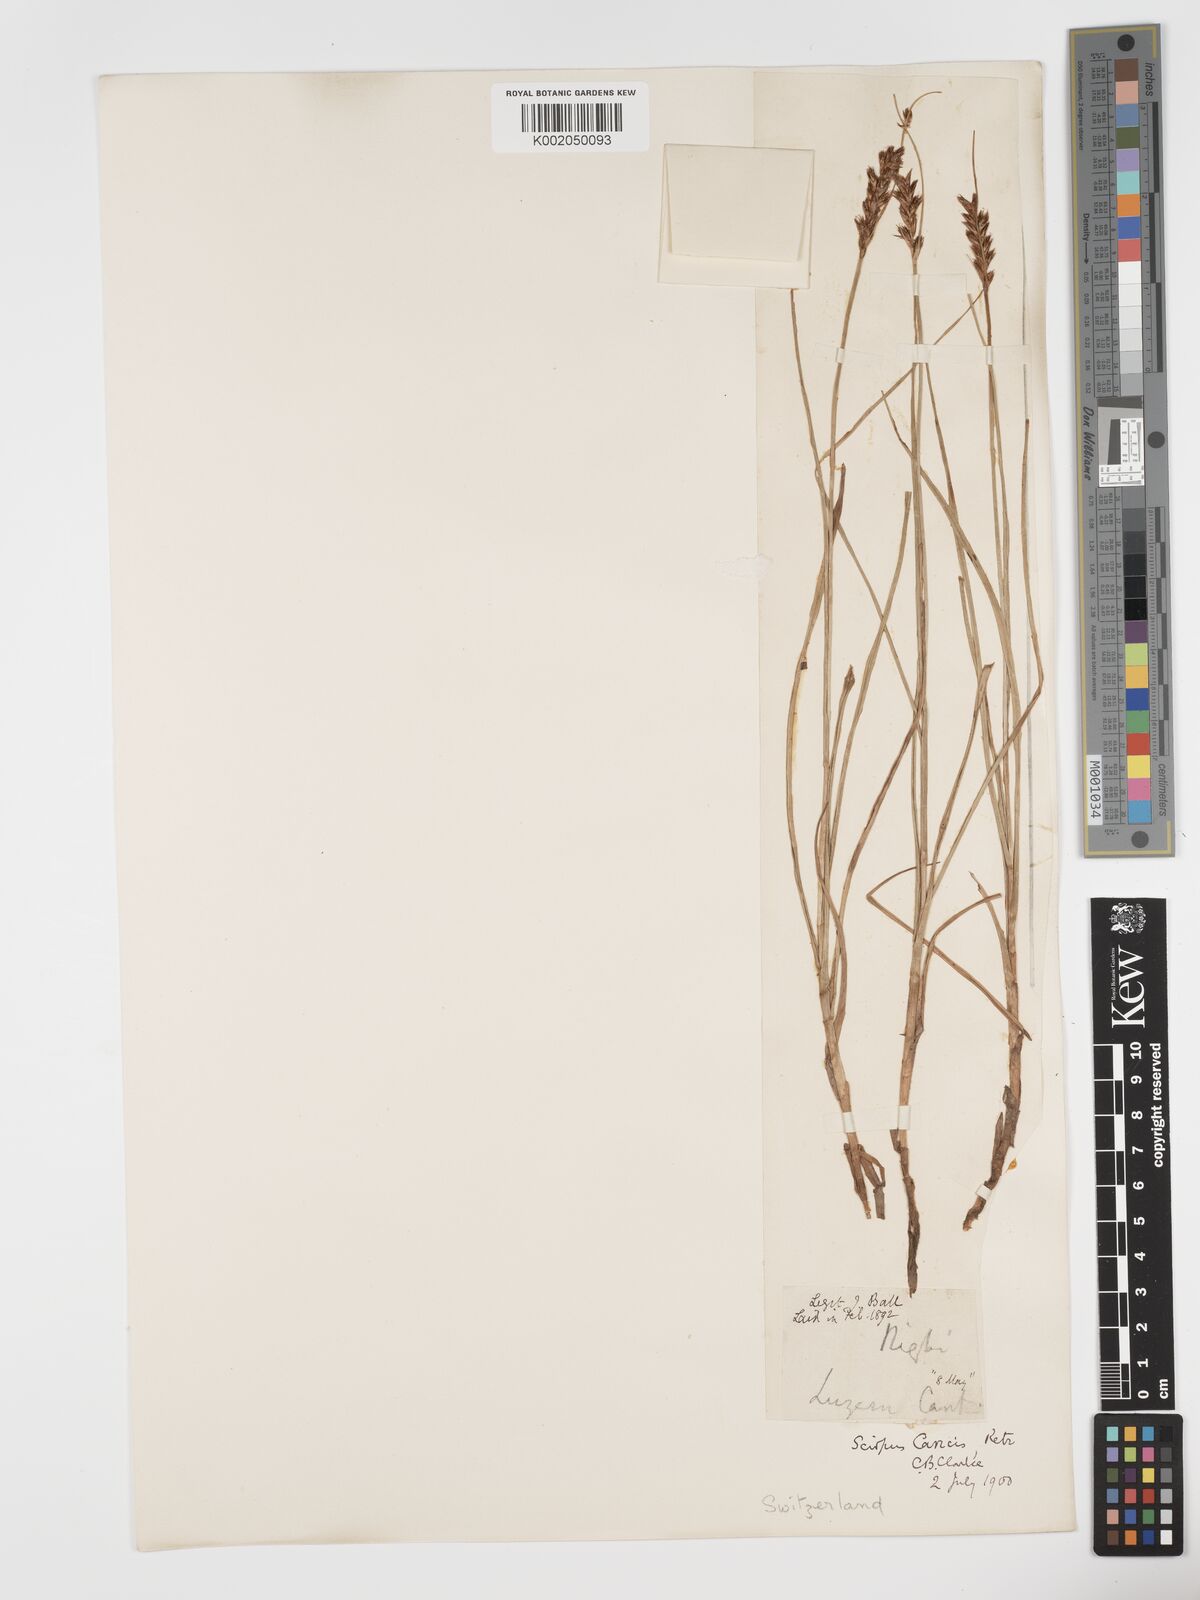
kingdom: Plantae
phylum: Tracheophyta
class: Liliopsida
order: Poales
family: Cyperaceae
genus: Blysmus
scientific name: Blysmus compressus
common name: Flat-sedge
